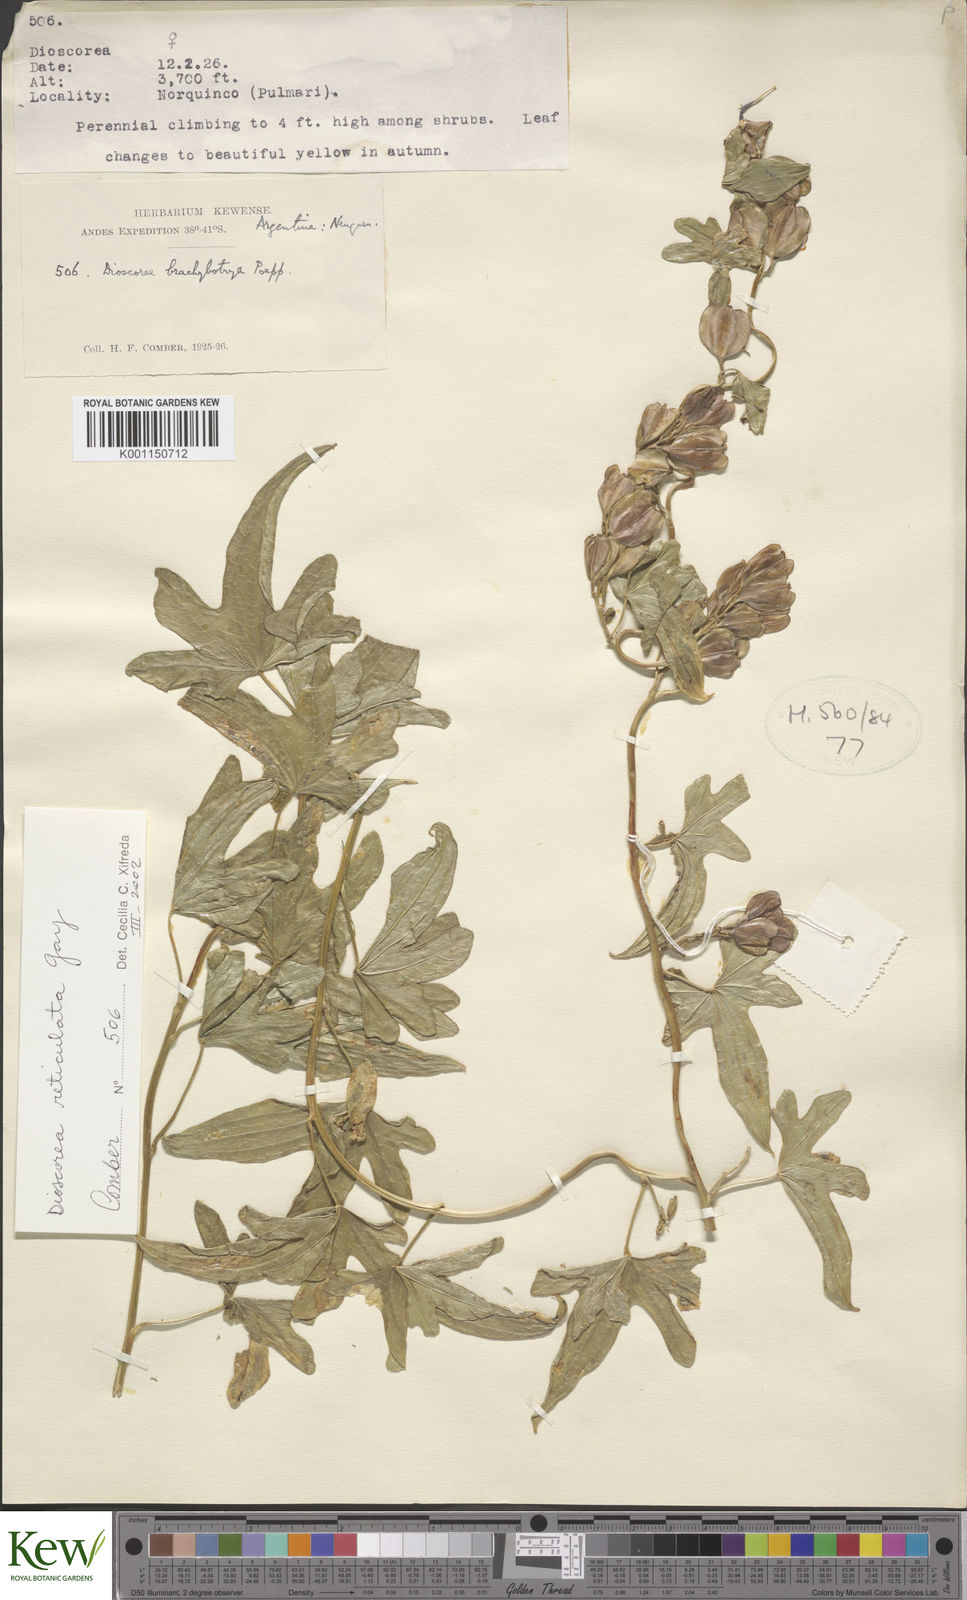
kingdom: Plantae
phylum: Tracheophyta
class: Liliopsida
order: Dioscoreales
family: Dioscoreaceae
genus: Dioscorea
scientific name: Dioscorea reticulata
